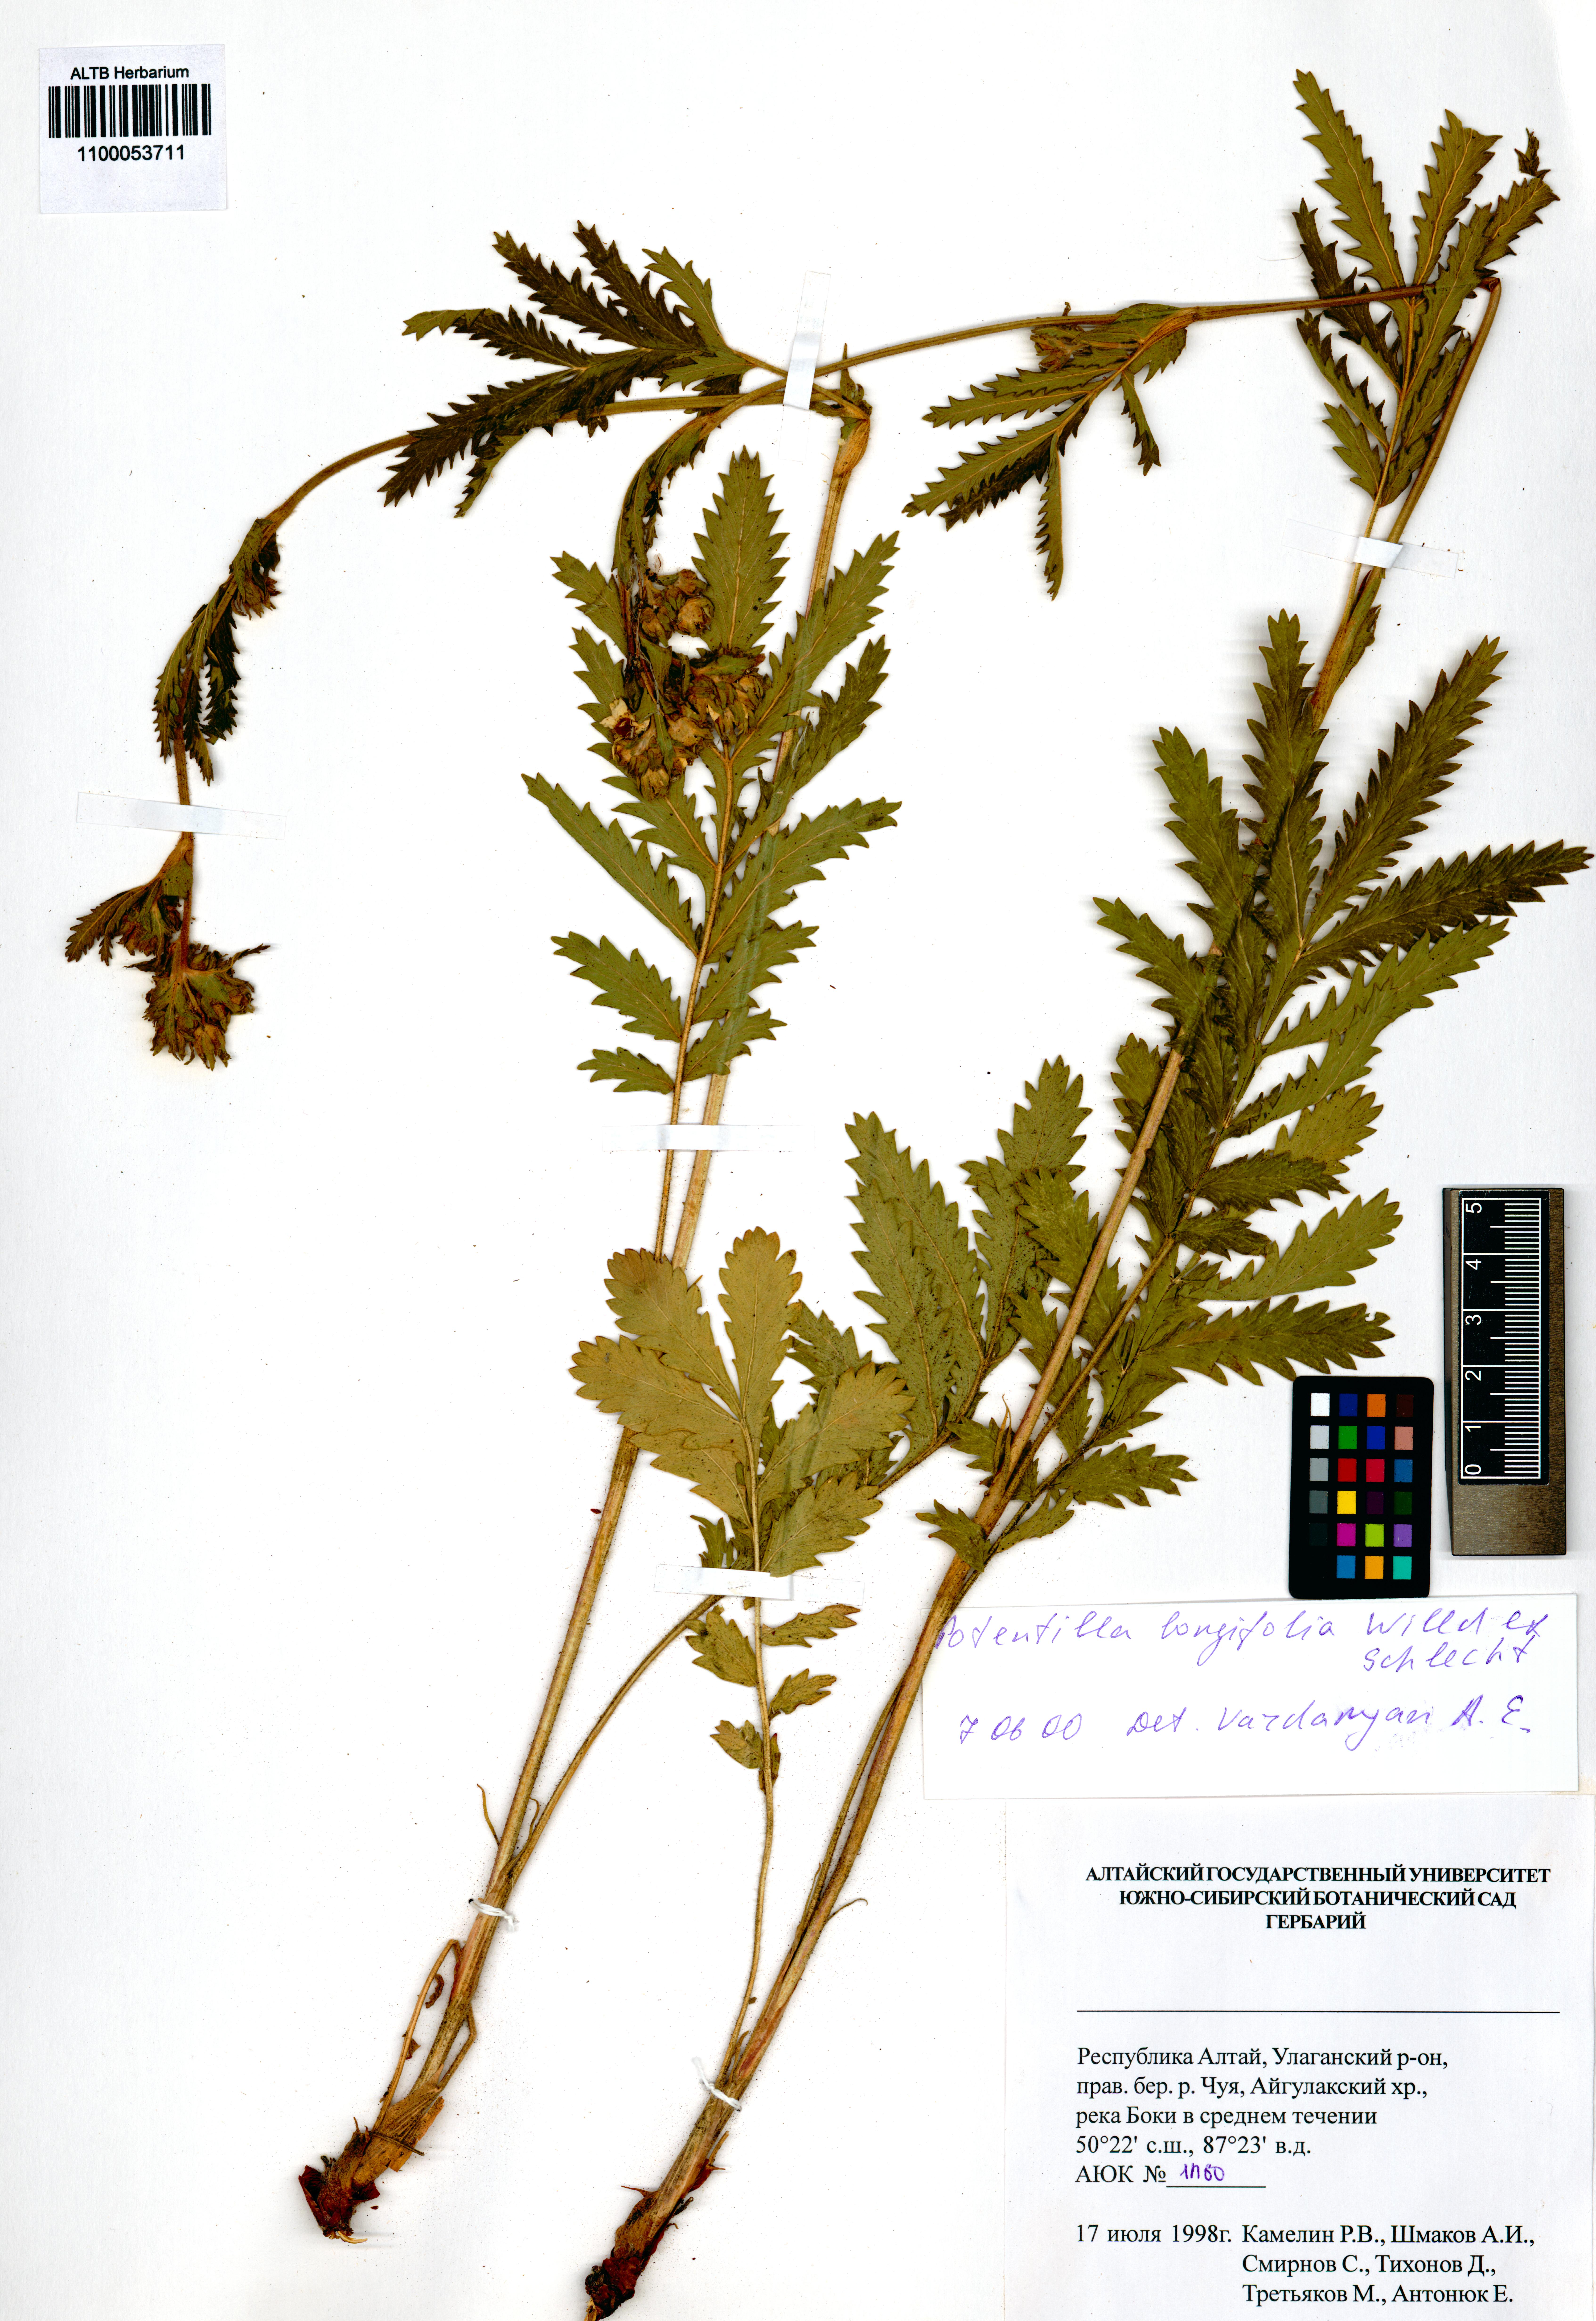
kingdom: Plantae
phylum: Tracheophyta
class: Magnoliopsida
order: Rosales
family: Rosaceae
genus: Potentilla
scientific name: Potentilla longifolia
